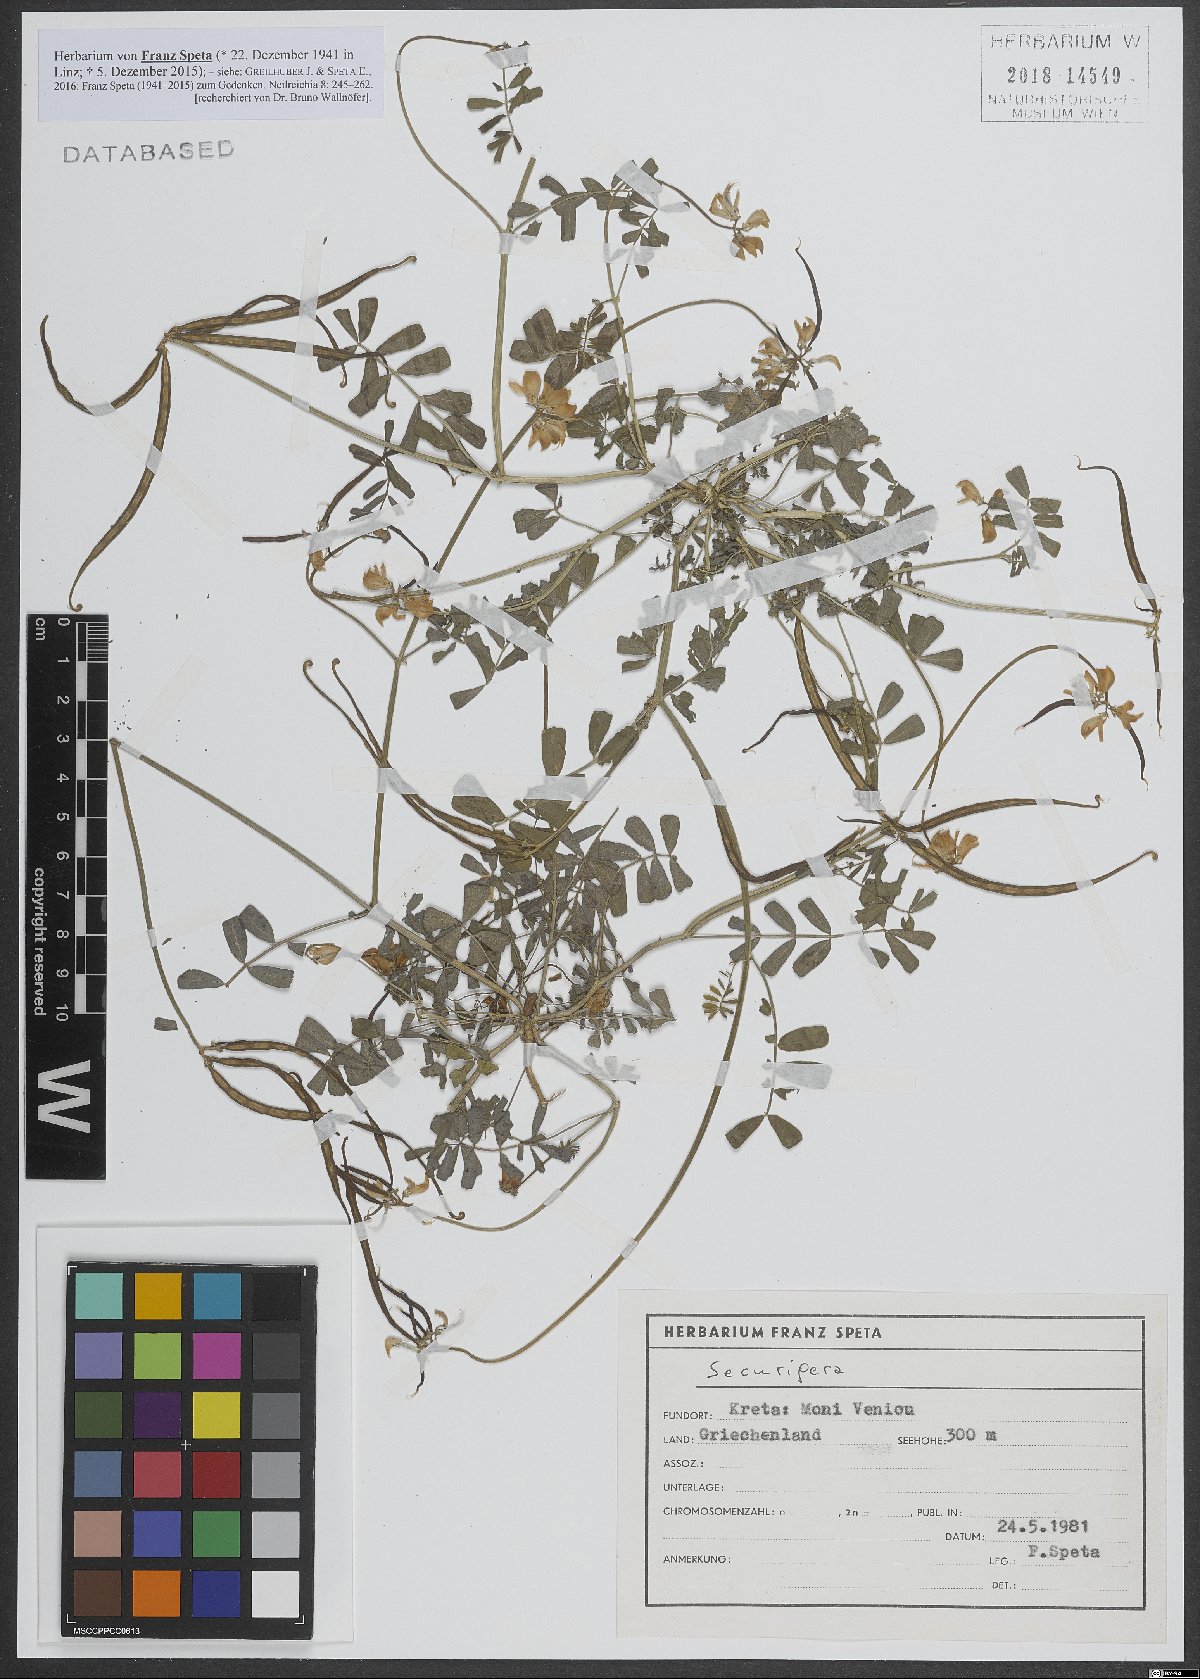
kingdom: Animalia
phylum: Arthropoda
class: Insecta
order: Orthoptera
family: Romaleidae
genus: Securigera
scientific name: Securigera
